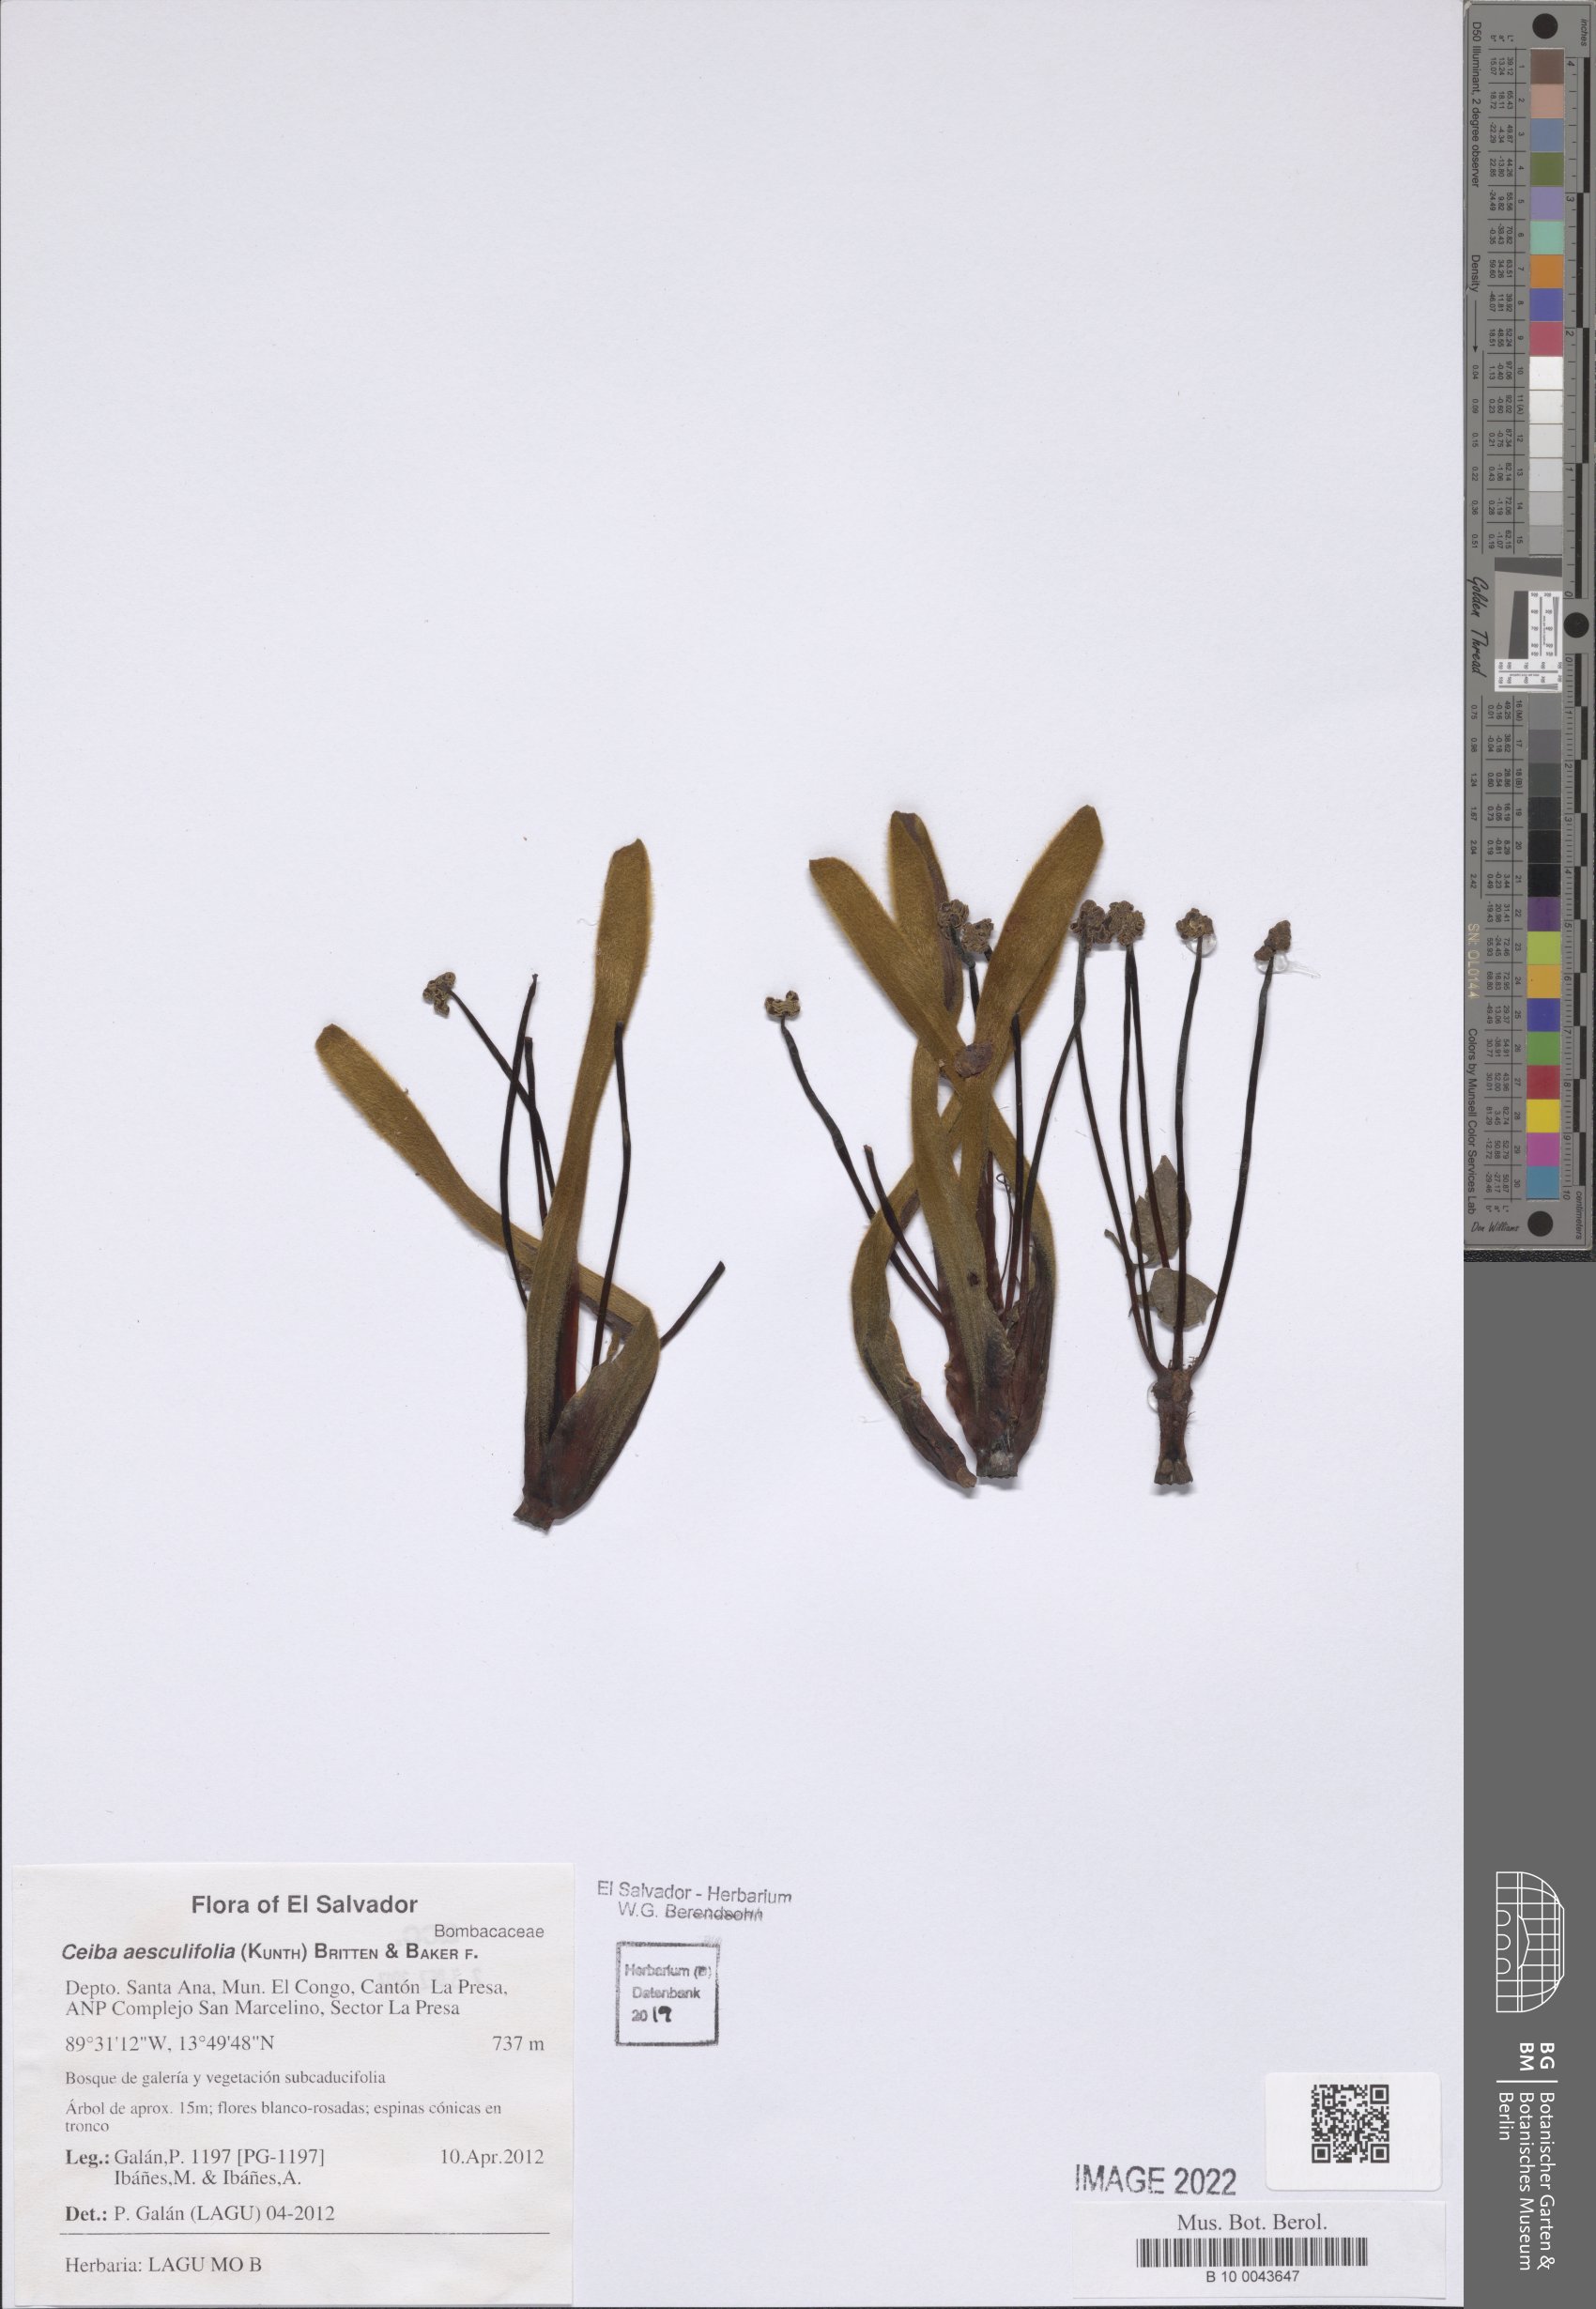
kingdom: Plantae
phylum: Tracheophyta
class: Magnoliopsida
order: Malvales
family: Malvaceae
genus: Ceiba
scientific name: Ceiba aesculifolia
